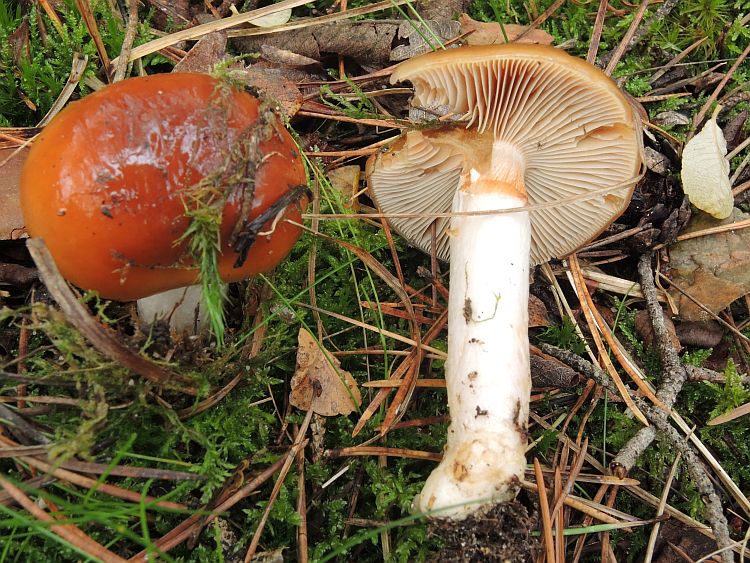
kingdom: Fungi
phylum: Basidiomycota
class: Agaricomycetes
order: Agaricales
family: Cortinariaceae
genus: Cortinarius
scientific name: Cortinarius mucosus
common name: kastaniebrun slørhat
